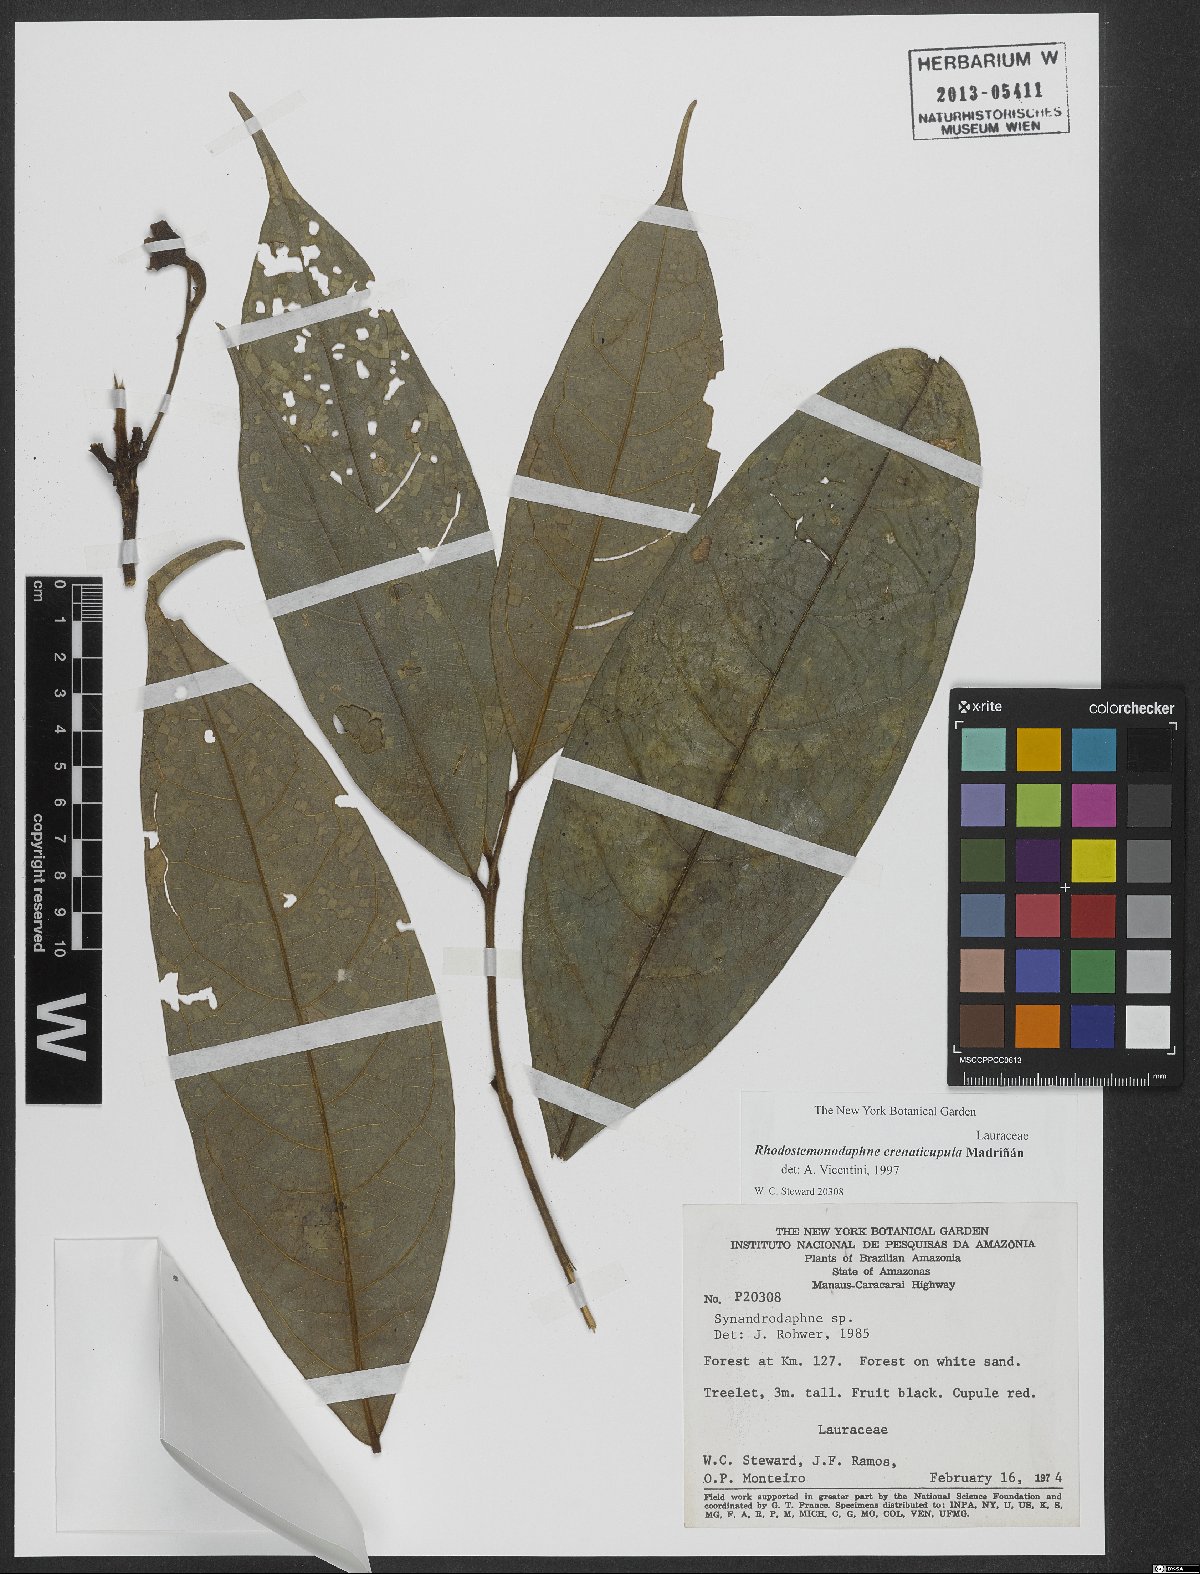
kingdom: Plantae
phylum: Tracheophyta
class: Magnoliopsida
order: Laurales
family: Lauraceae
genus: Rhodostemonodaphne
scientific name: Rhodostemonodaphne crenaticupula
